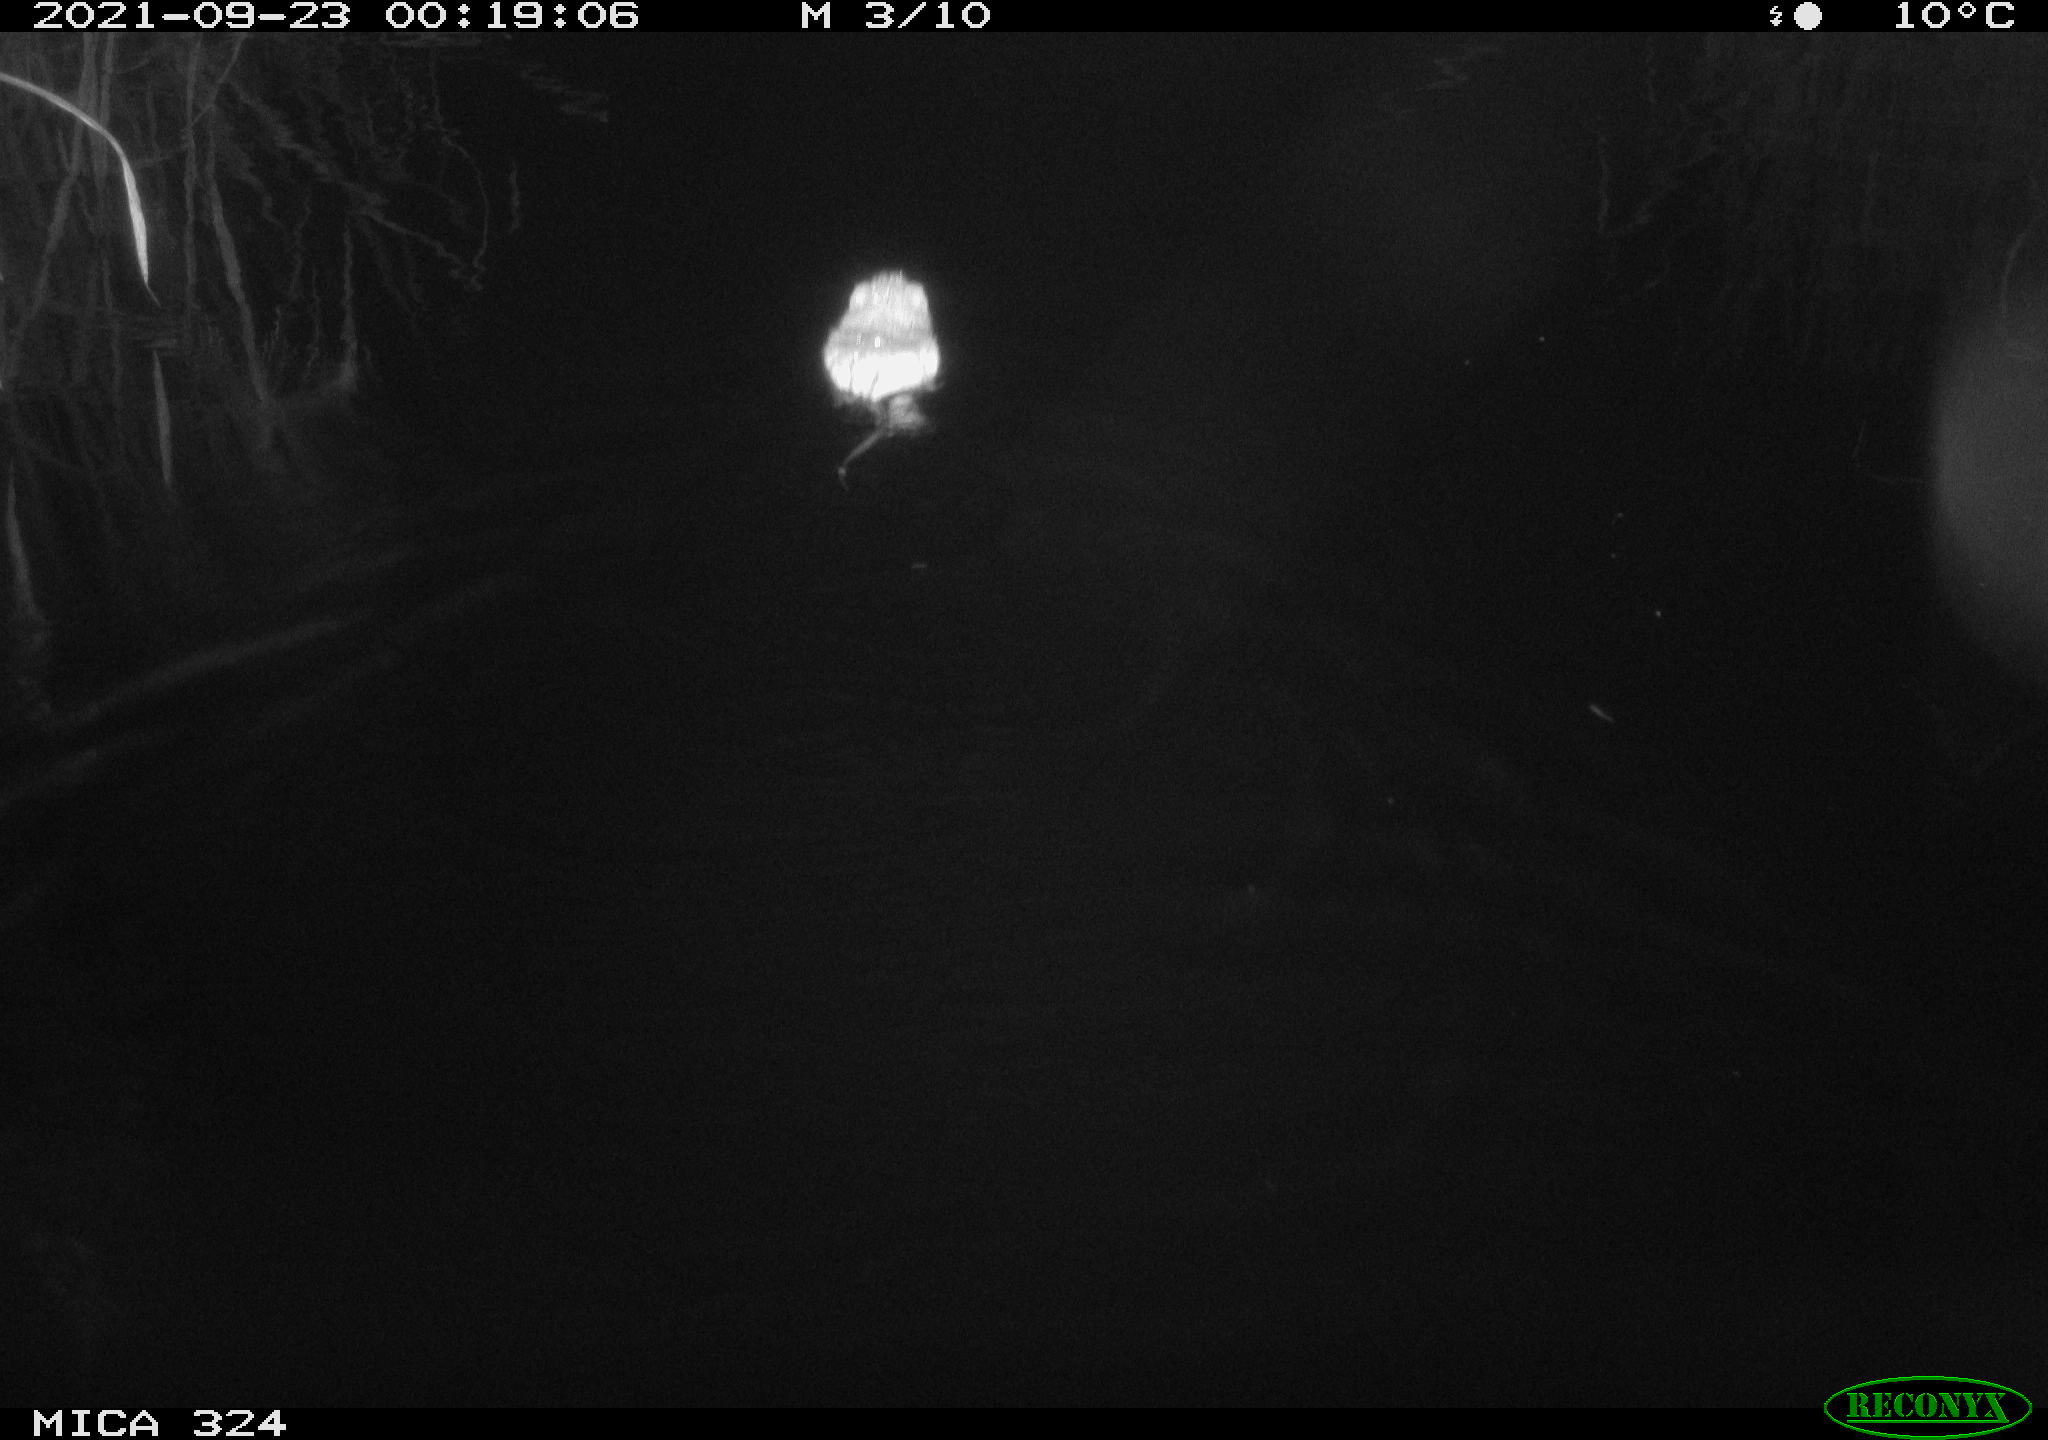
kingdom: Animalia
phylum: Chordata
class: Mammalia
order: Rodentia
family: Cricetidae
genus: Ondatra
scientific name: Ondatra zibethicus
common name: Muskrat
